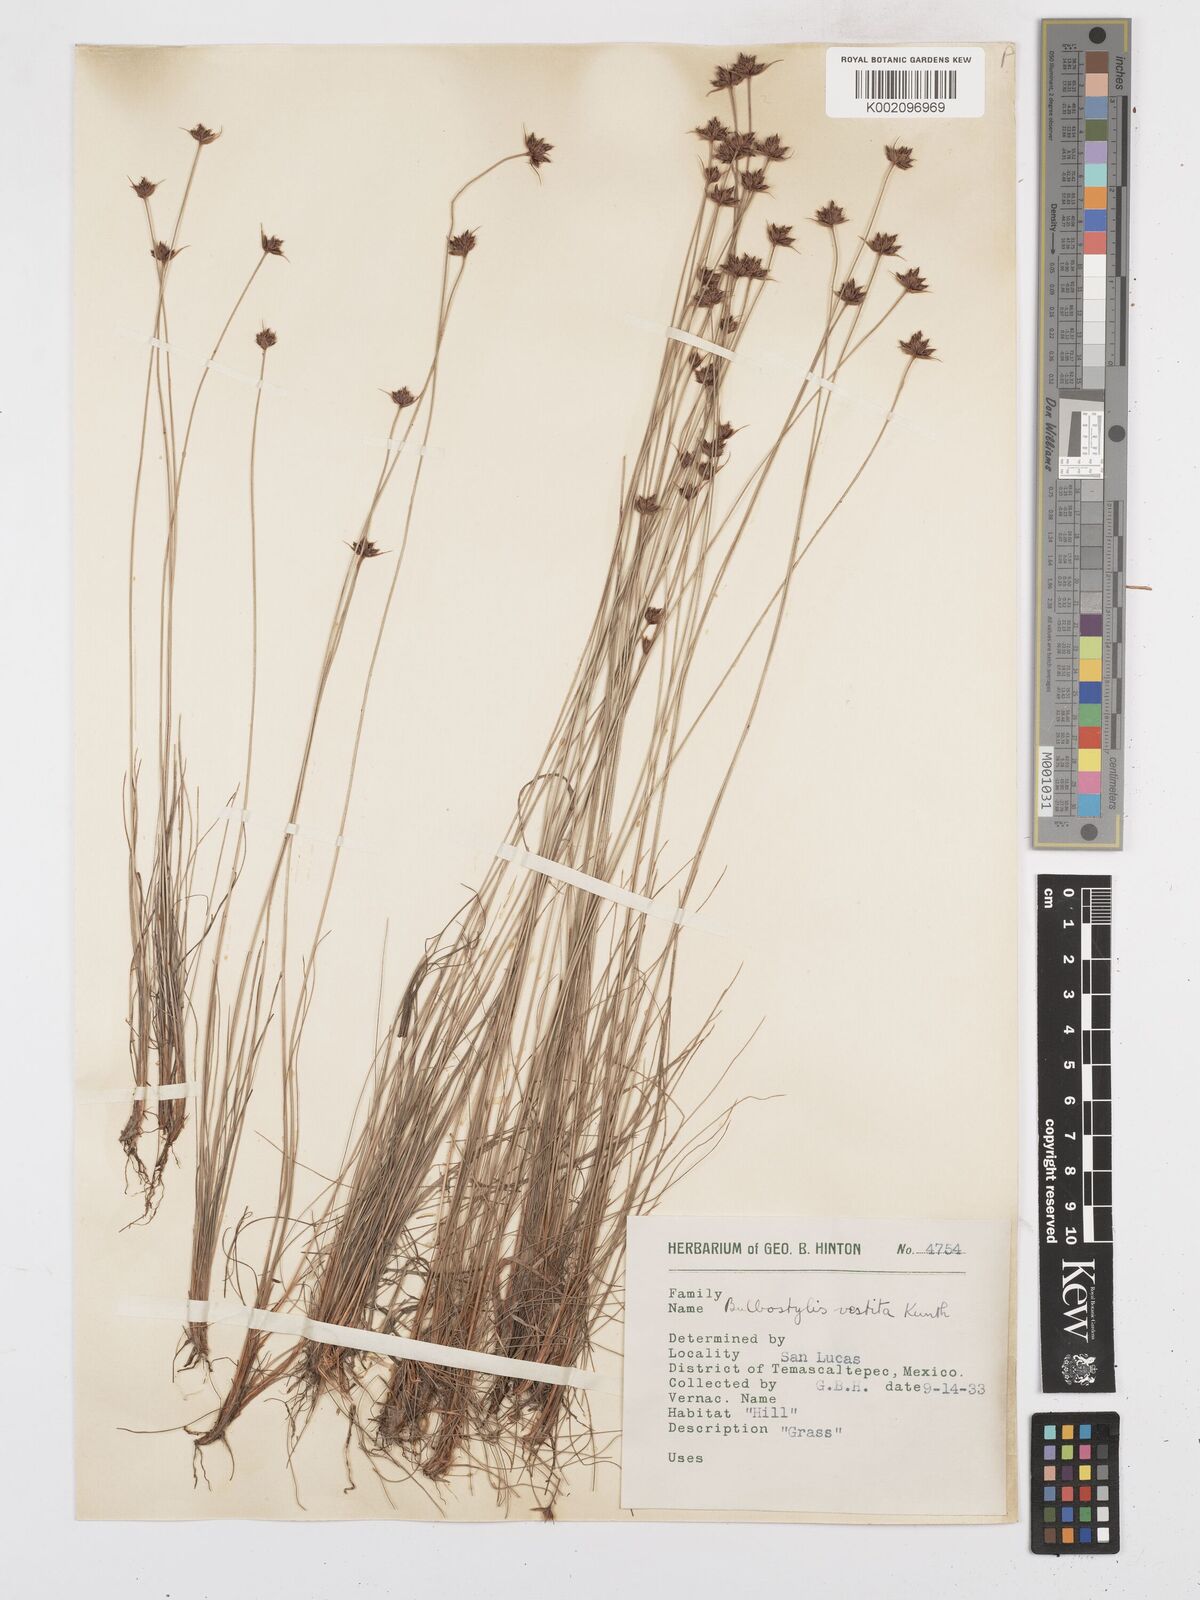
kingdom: Plantae
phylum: Tracheophyta
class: Liliopsida
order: Poales
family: Cyperaceae
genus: Bulbostylis
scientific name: Bulbostylis vestita
